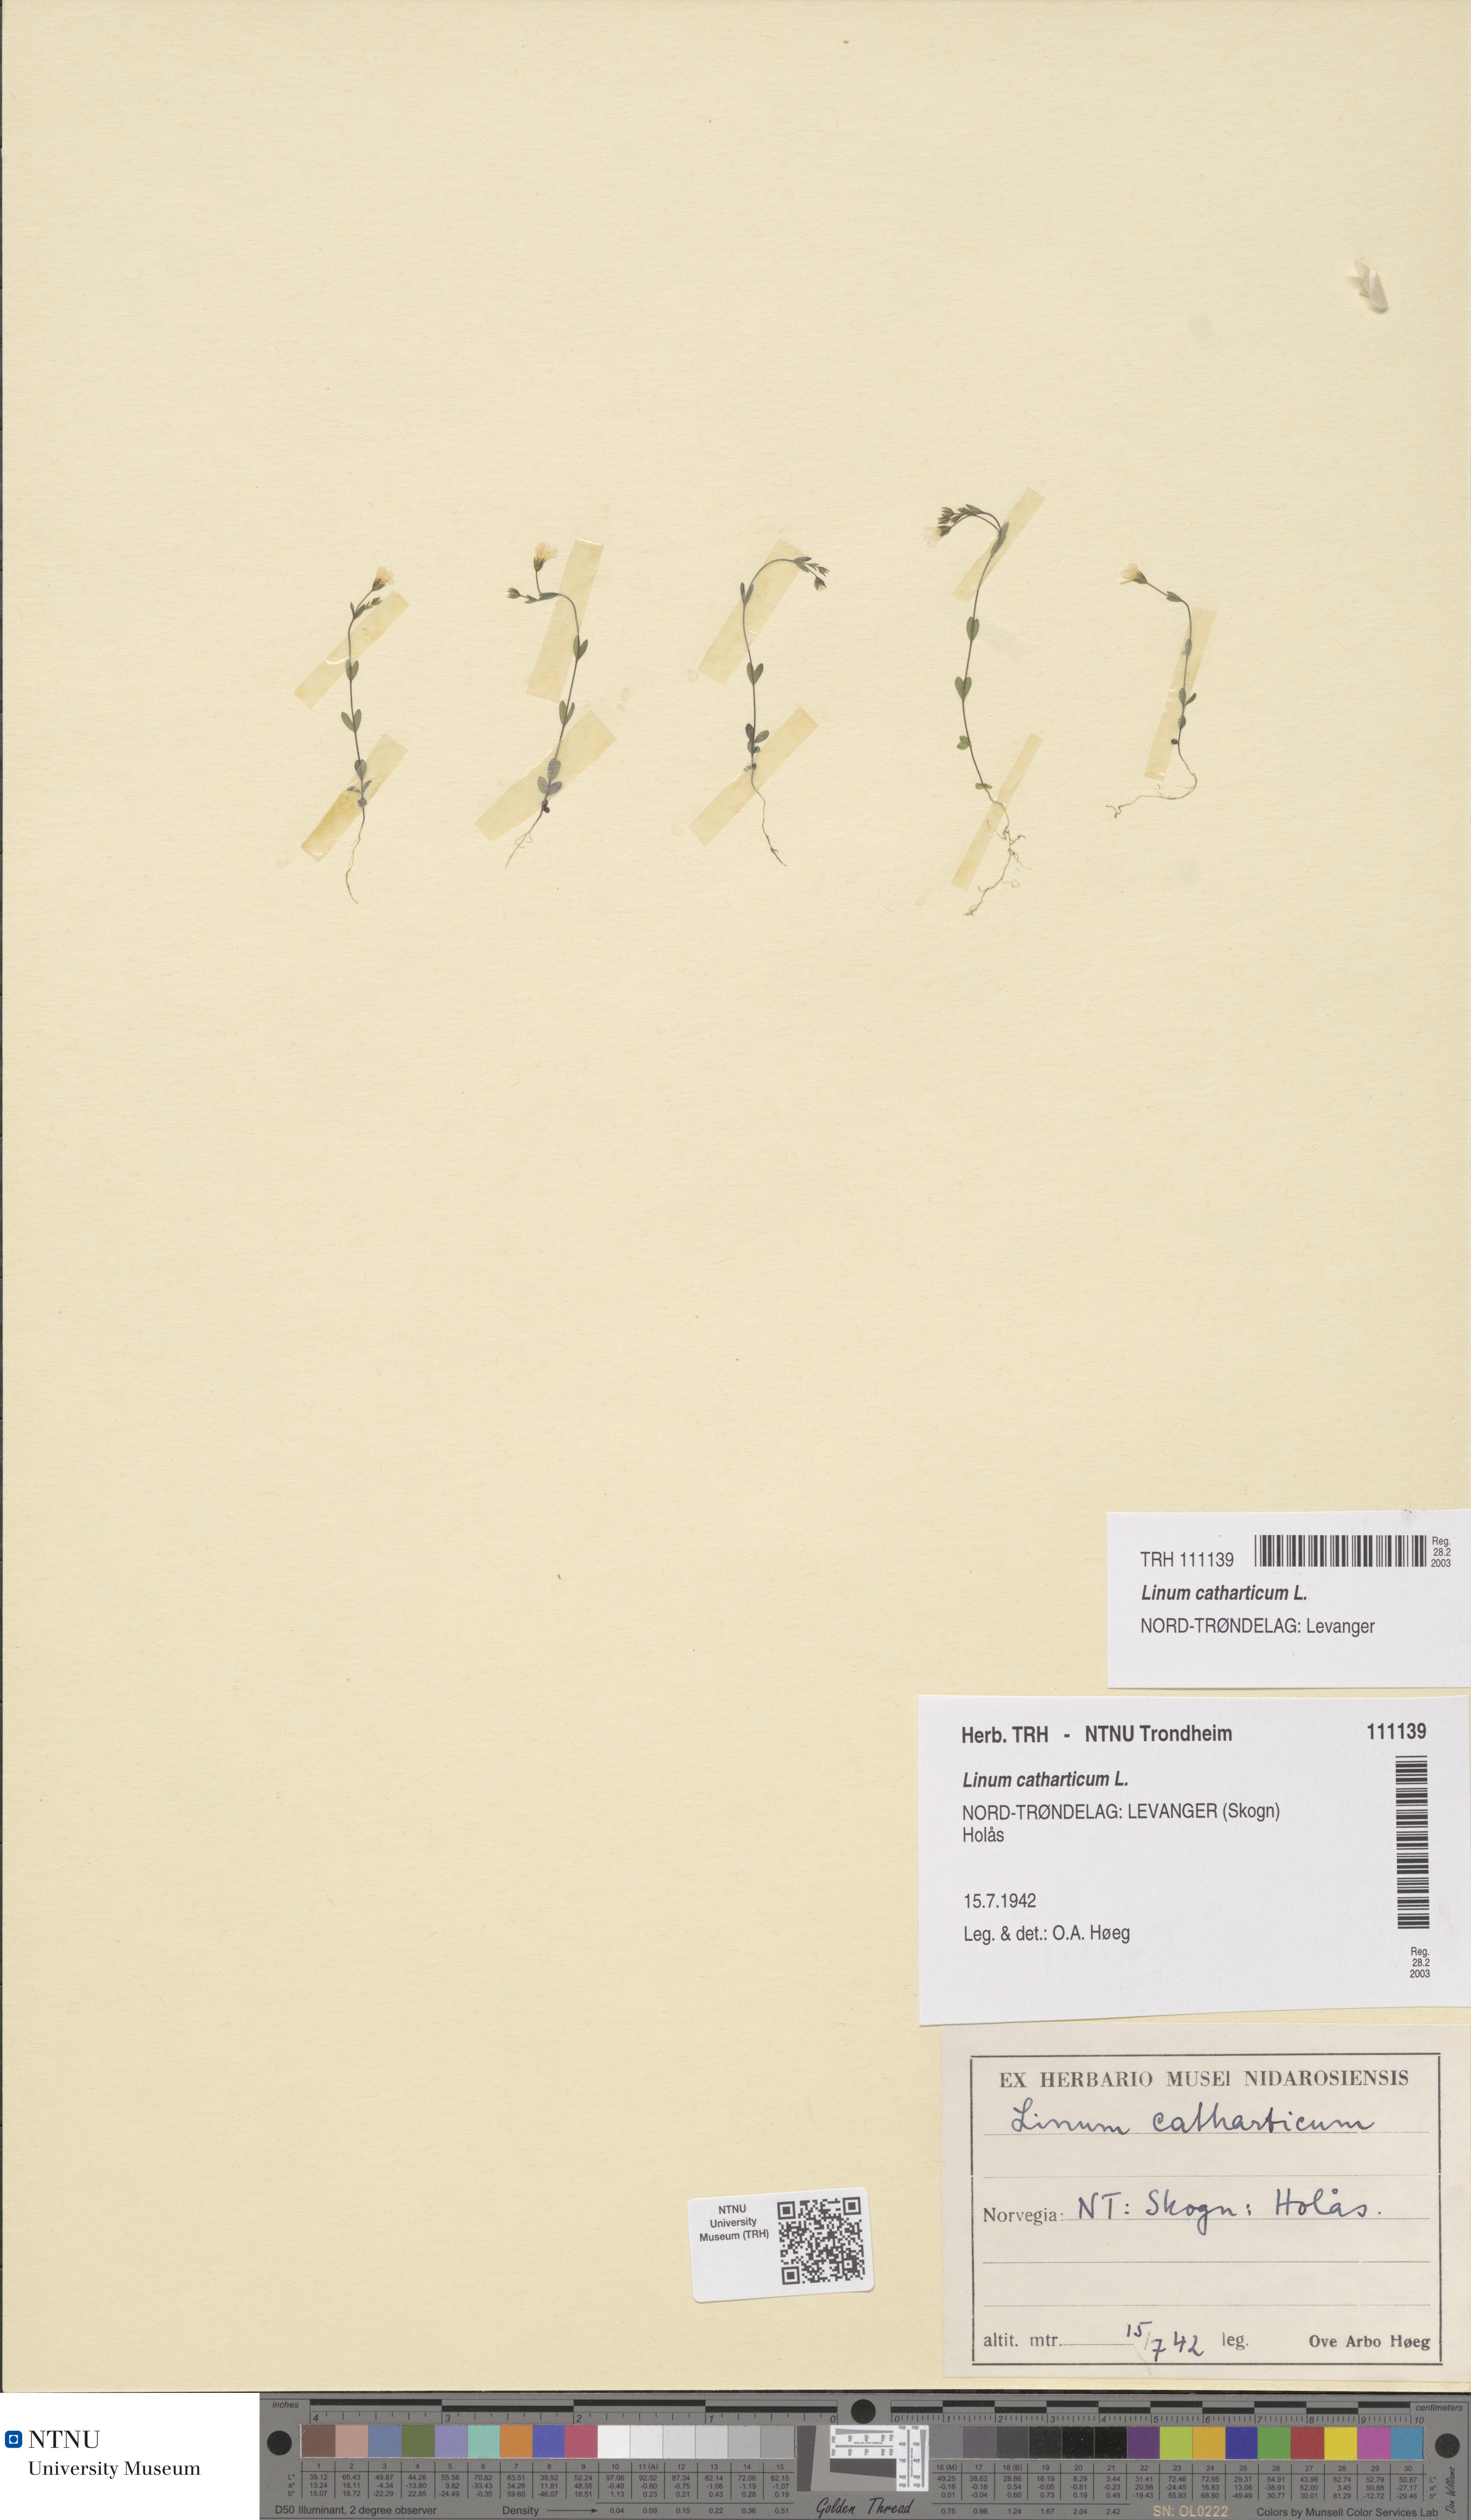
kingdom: Plantae
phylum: Tracheophyta
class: Magnoliopsida
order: Malpighiales
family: Linaceae
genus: Linum
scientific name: Linum catharticum
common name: Fairy flax
